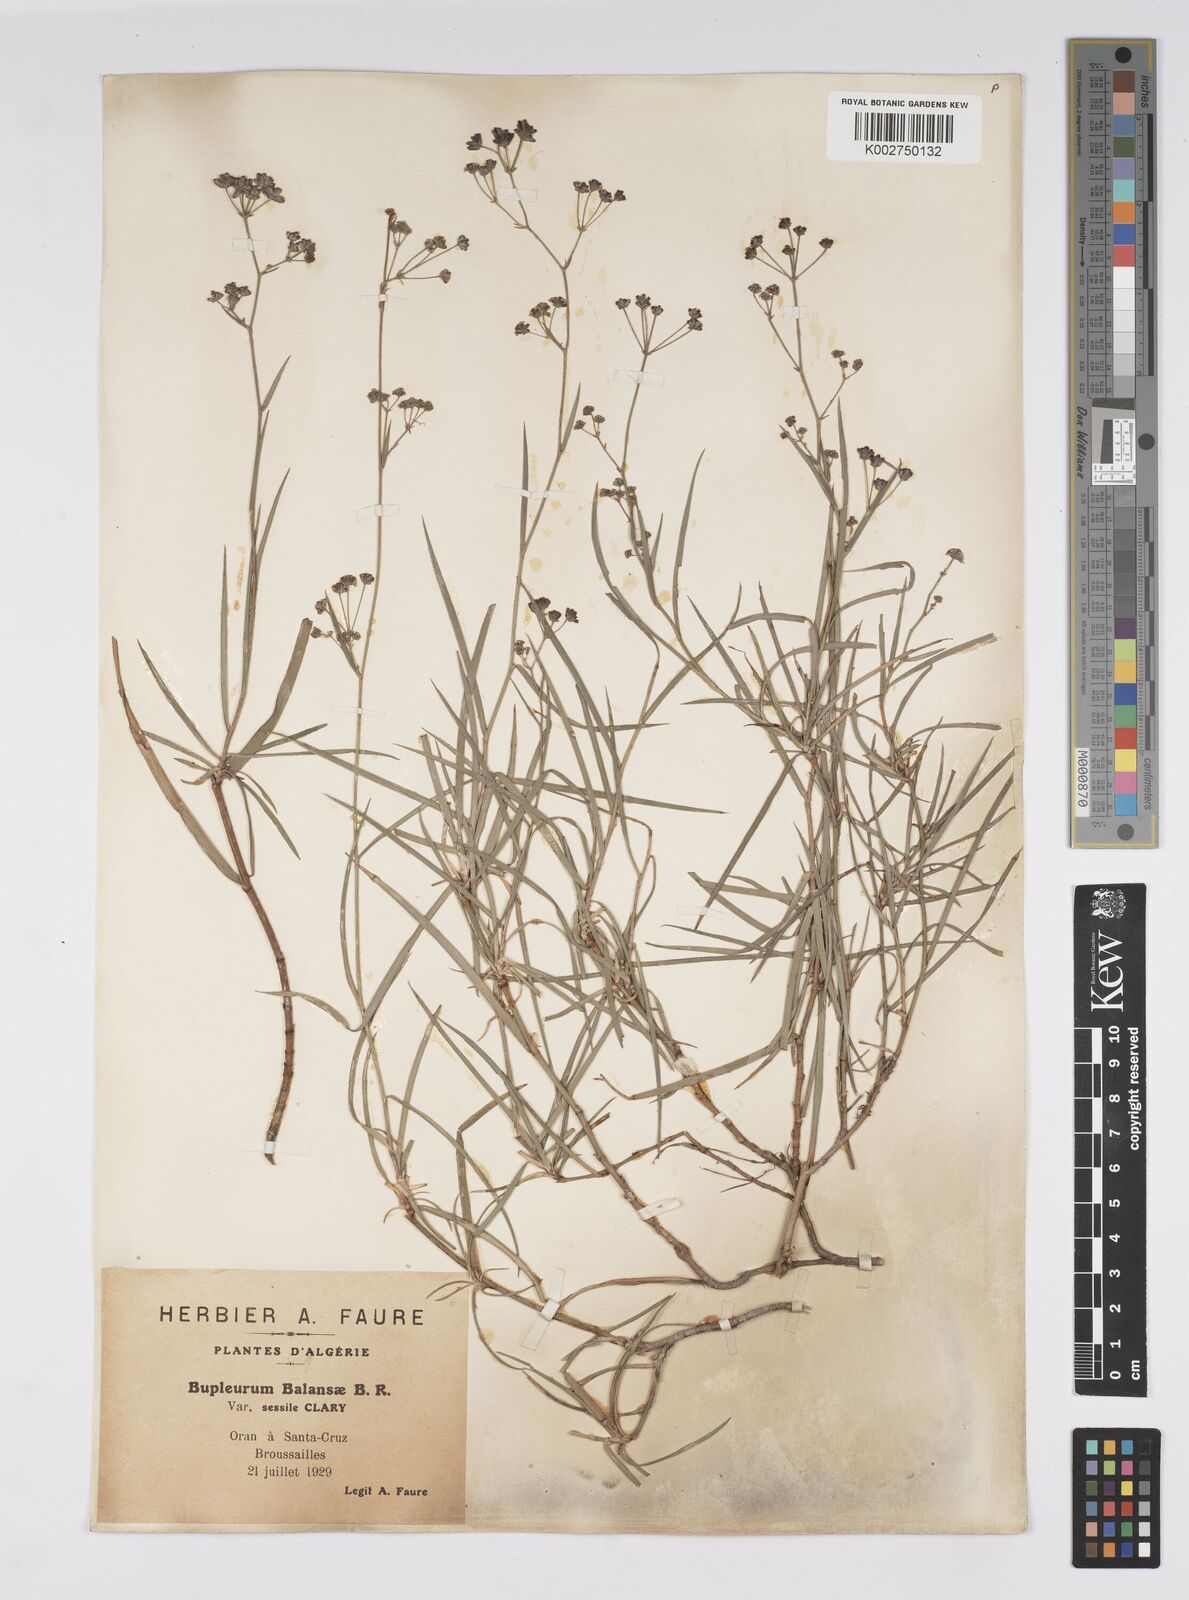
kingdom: Plantae
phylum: Tracheophyta
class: Magnoliopsida
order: Apiales
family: Apiaceae
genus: Bupleurum
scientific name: Bupleurum balansae
